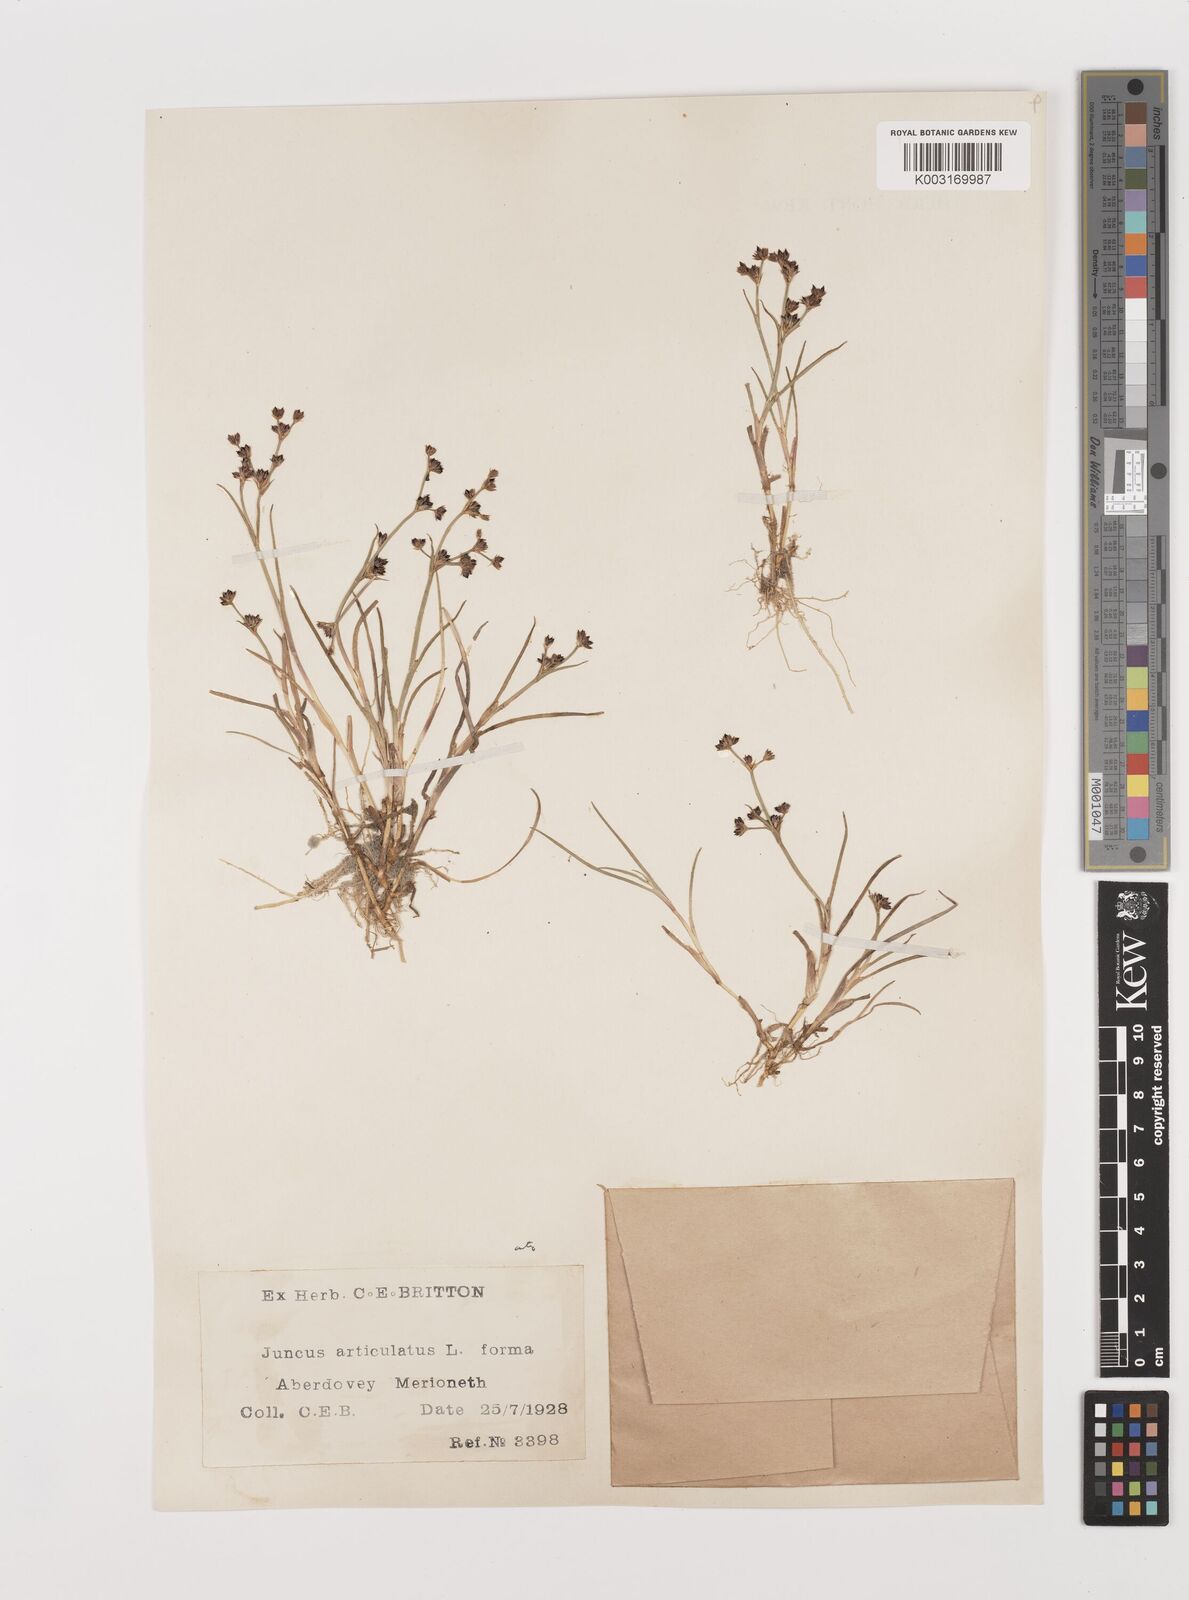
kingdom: Plantae
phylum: Tracheophyta
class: Liliopsida
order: Poales
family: Juncaceae
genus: Juncus
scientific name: Juncus articulatus
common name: Jointed rush
